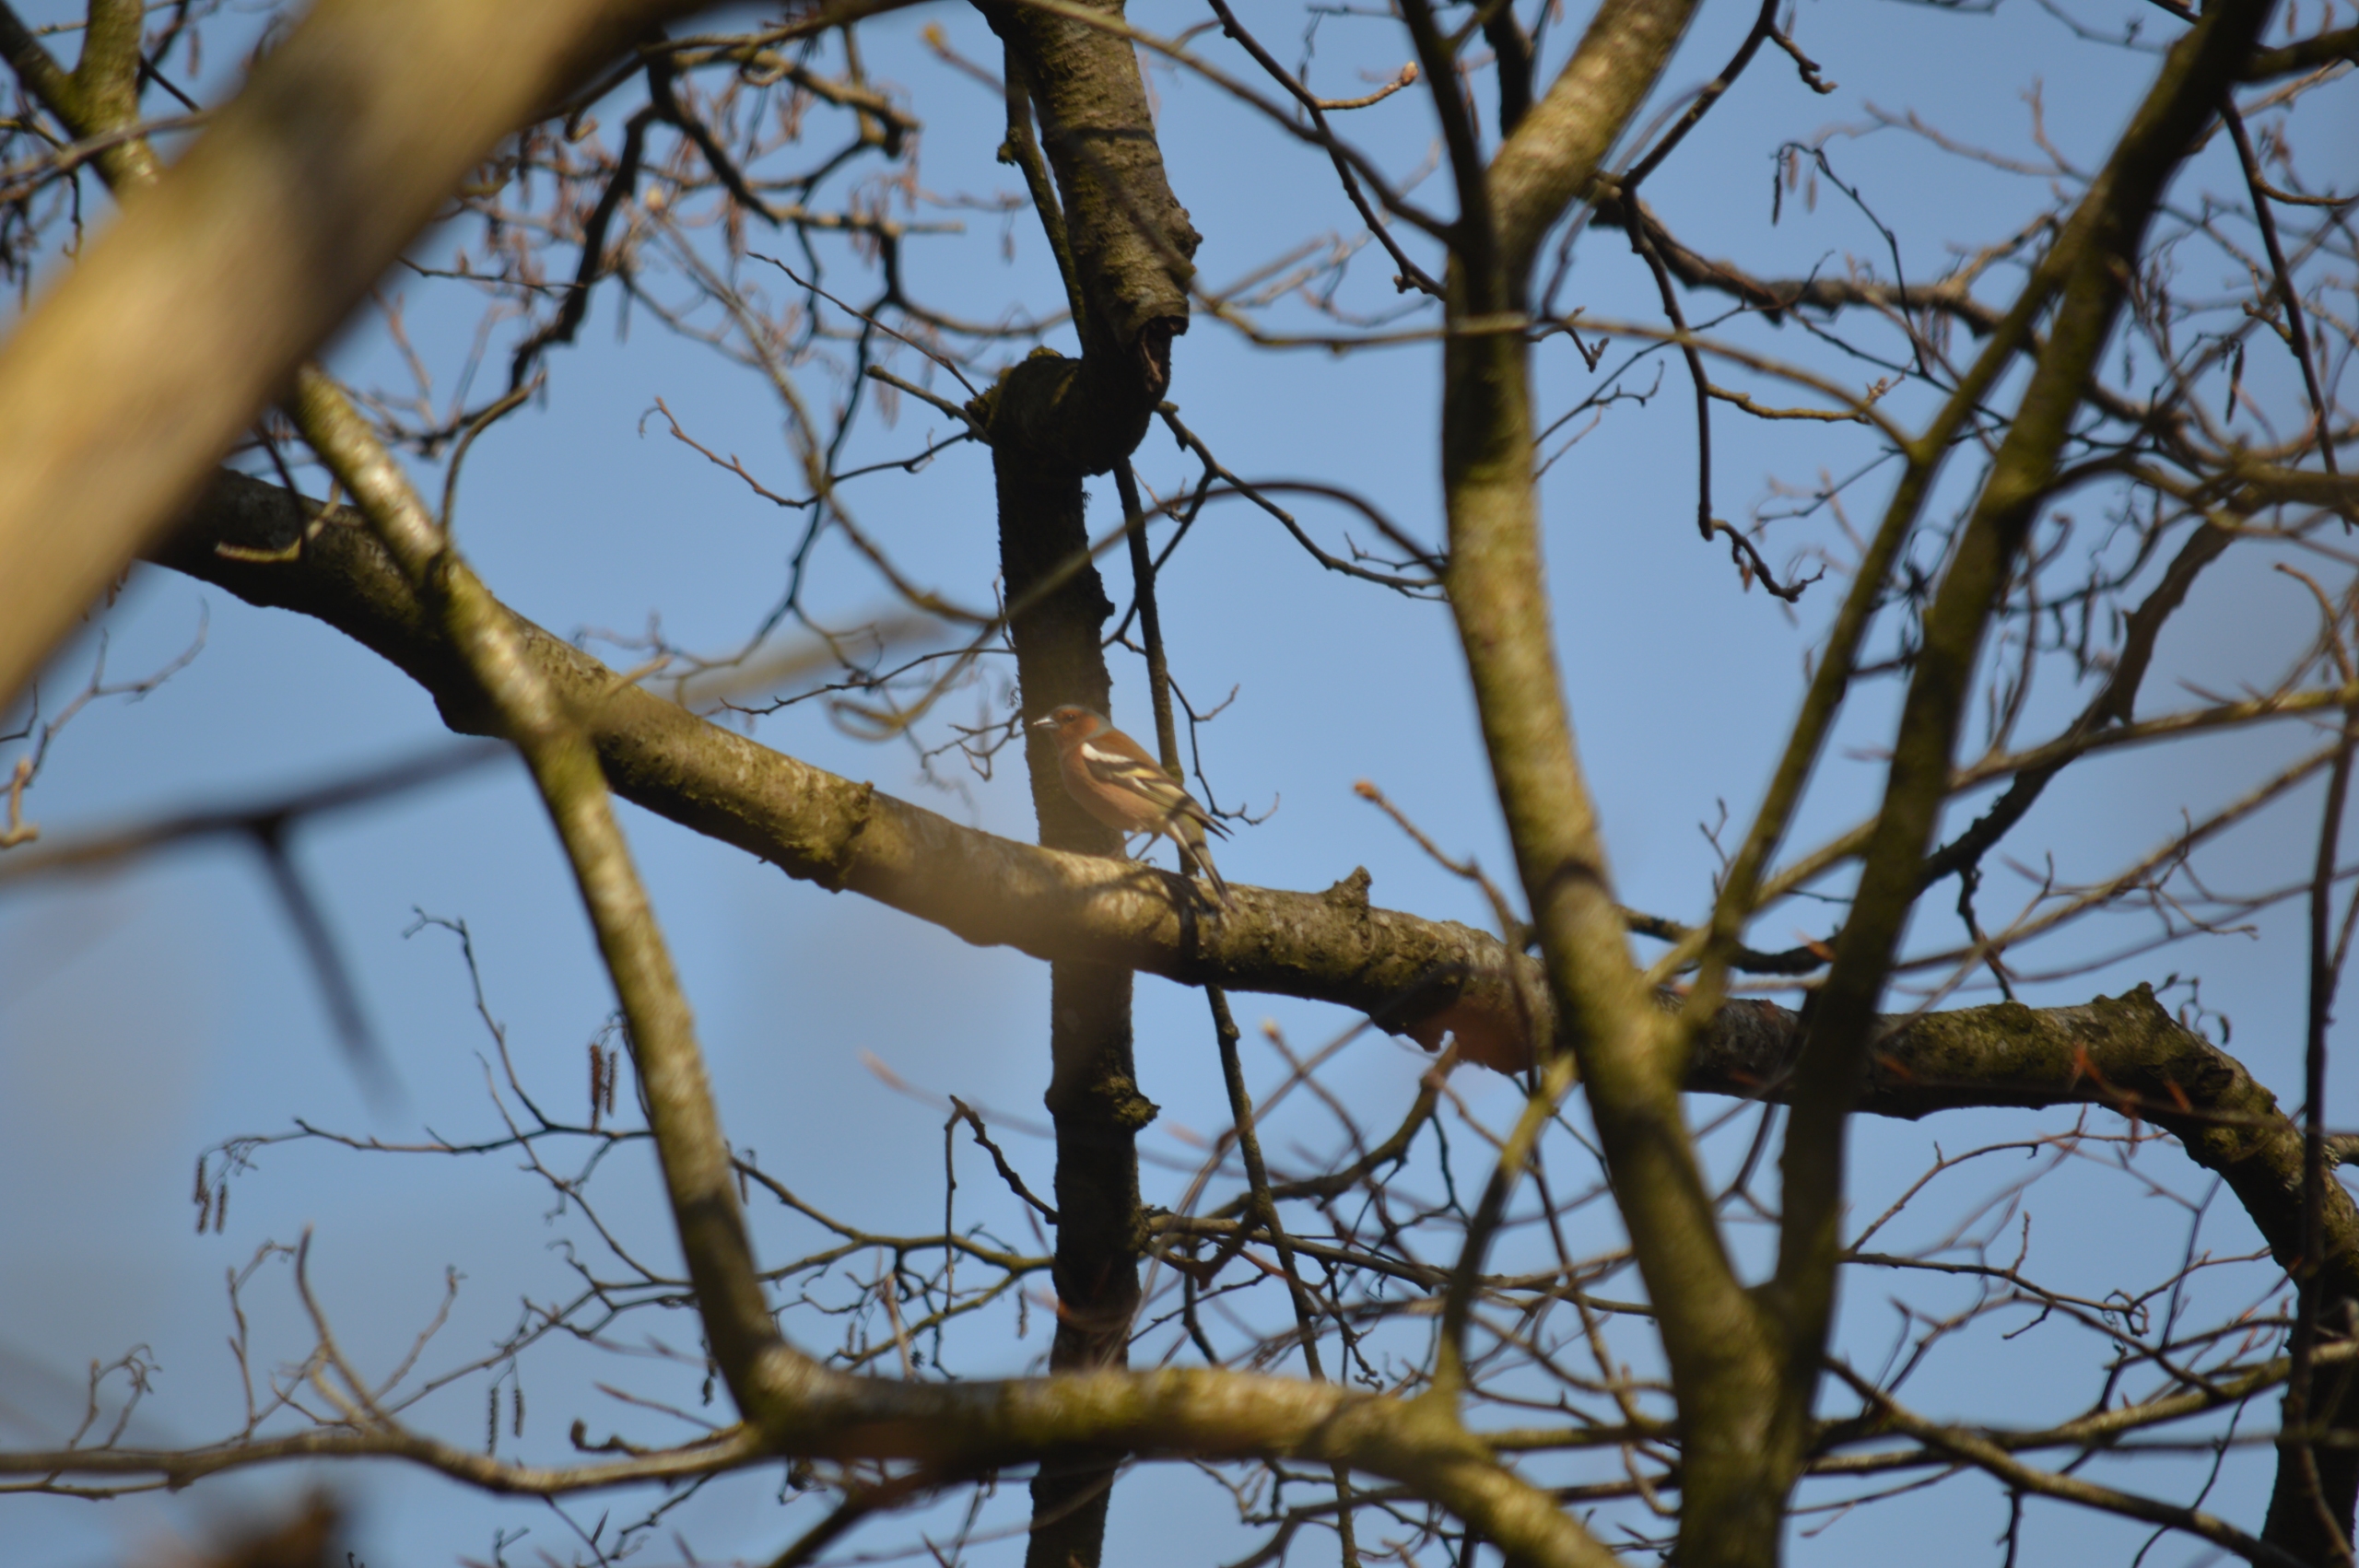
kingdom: Animalia
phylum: Chordata
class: Aves
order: Passeriformes
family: Fringillidae
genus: Fringilla
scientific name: Fringilla coelebs
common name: Bogfinke
